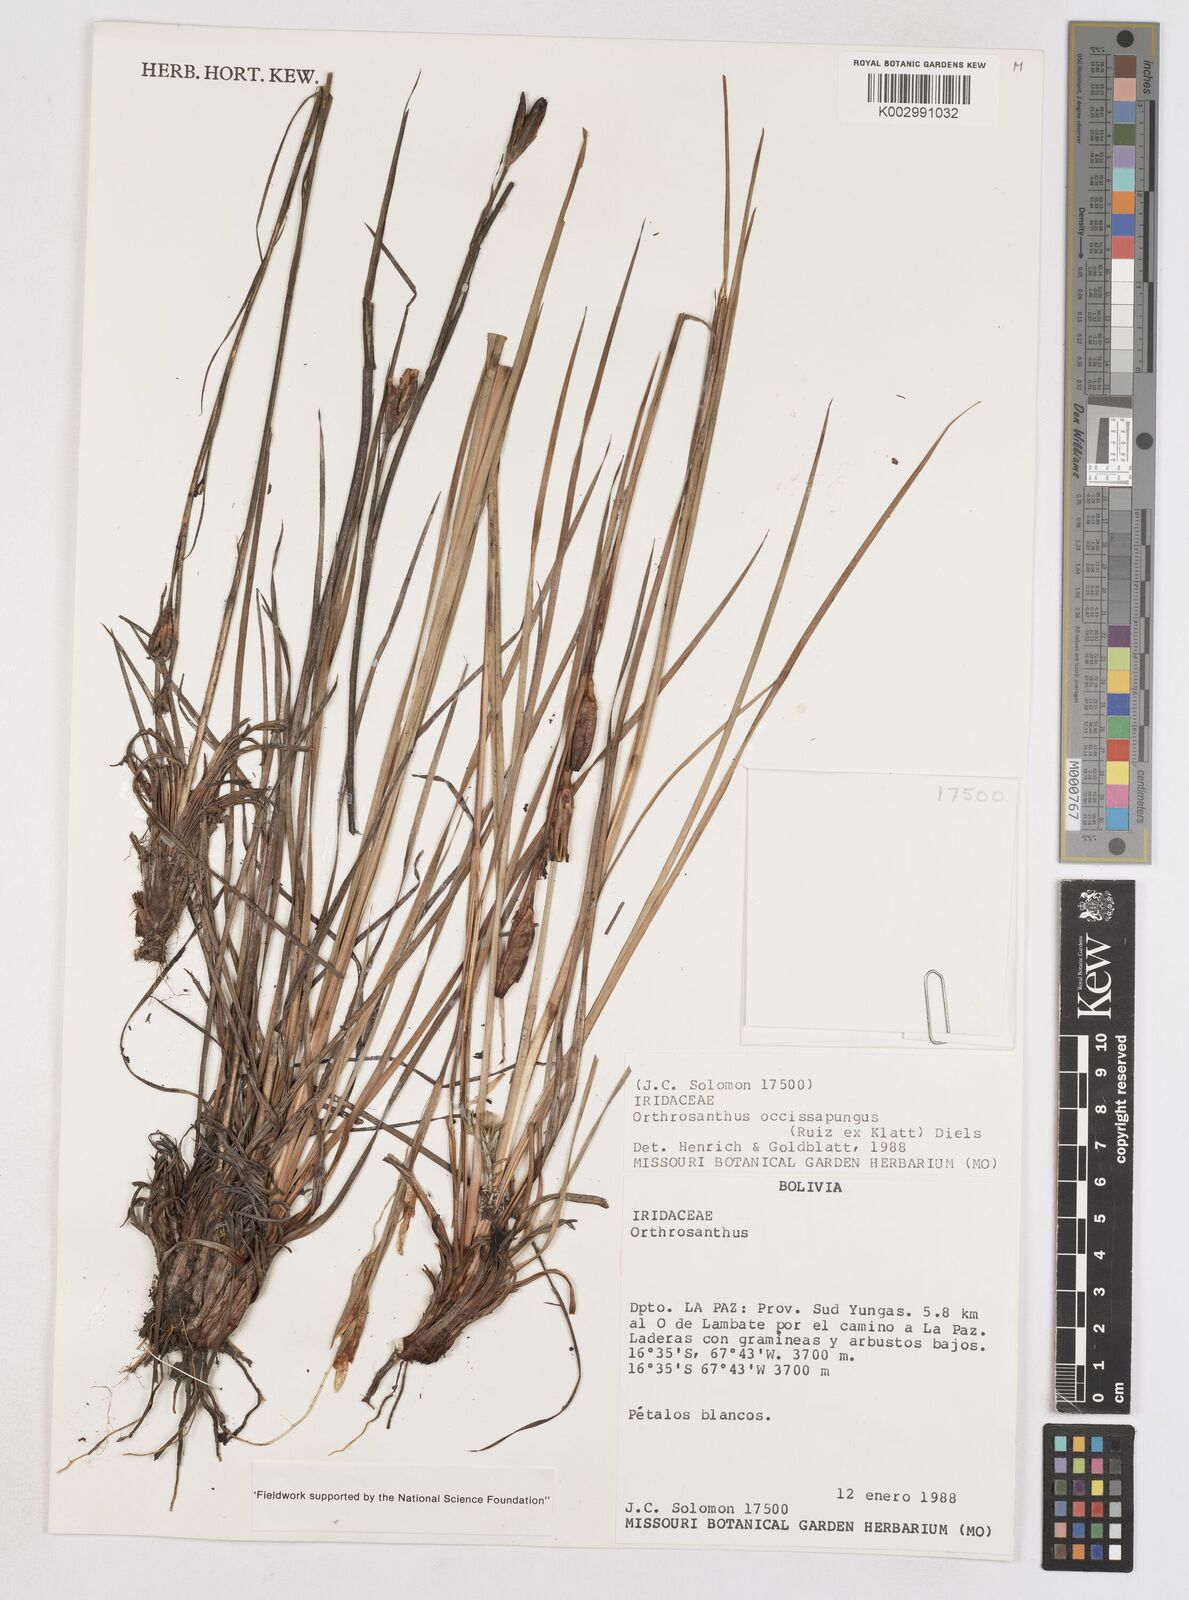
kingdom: Plantae
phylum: Tracheophyta
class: Liliopsida
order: Asparagales
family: Iridaceae
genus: Orthrosanthus
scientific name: Orthrosanthus occissapungus
